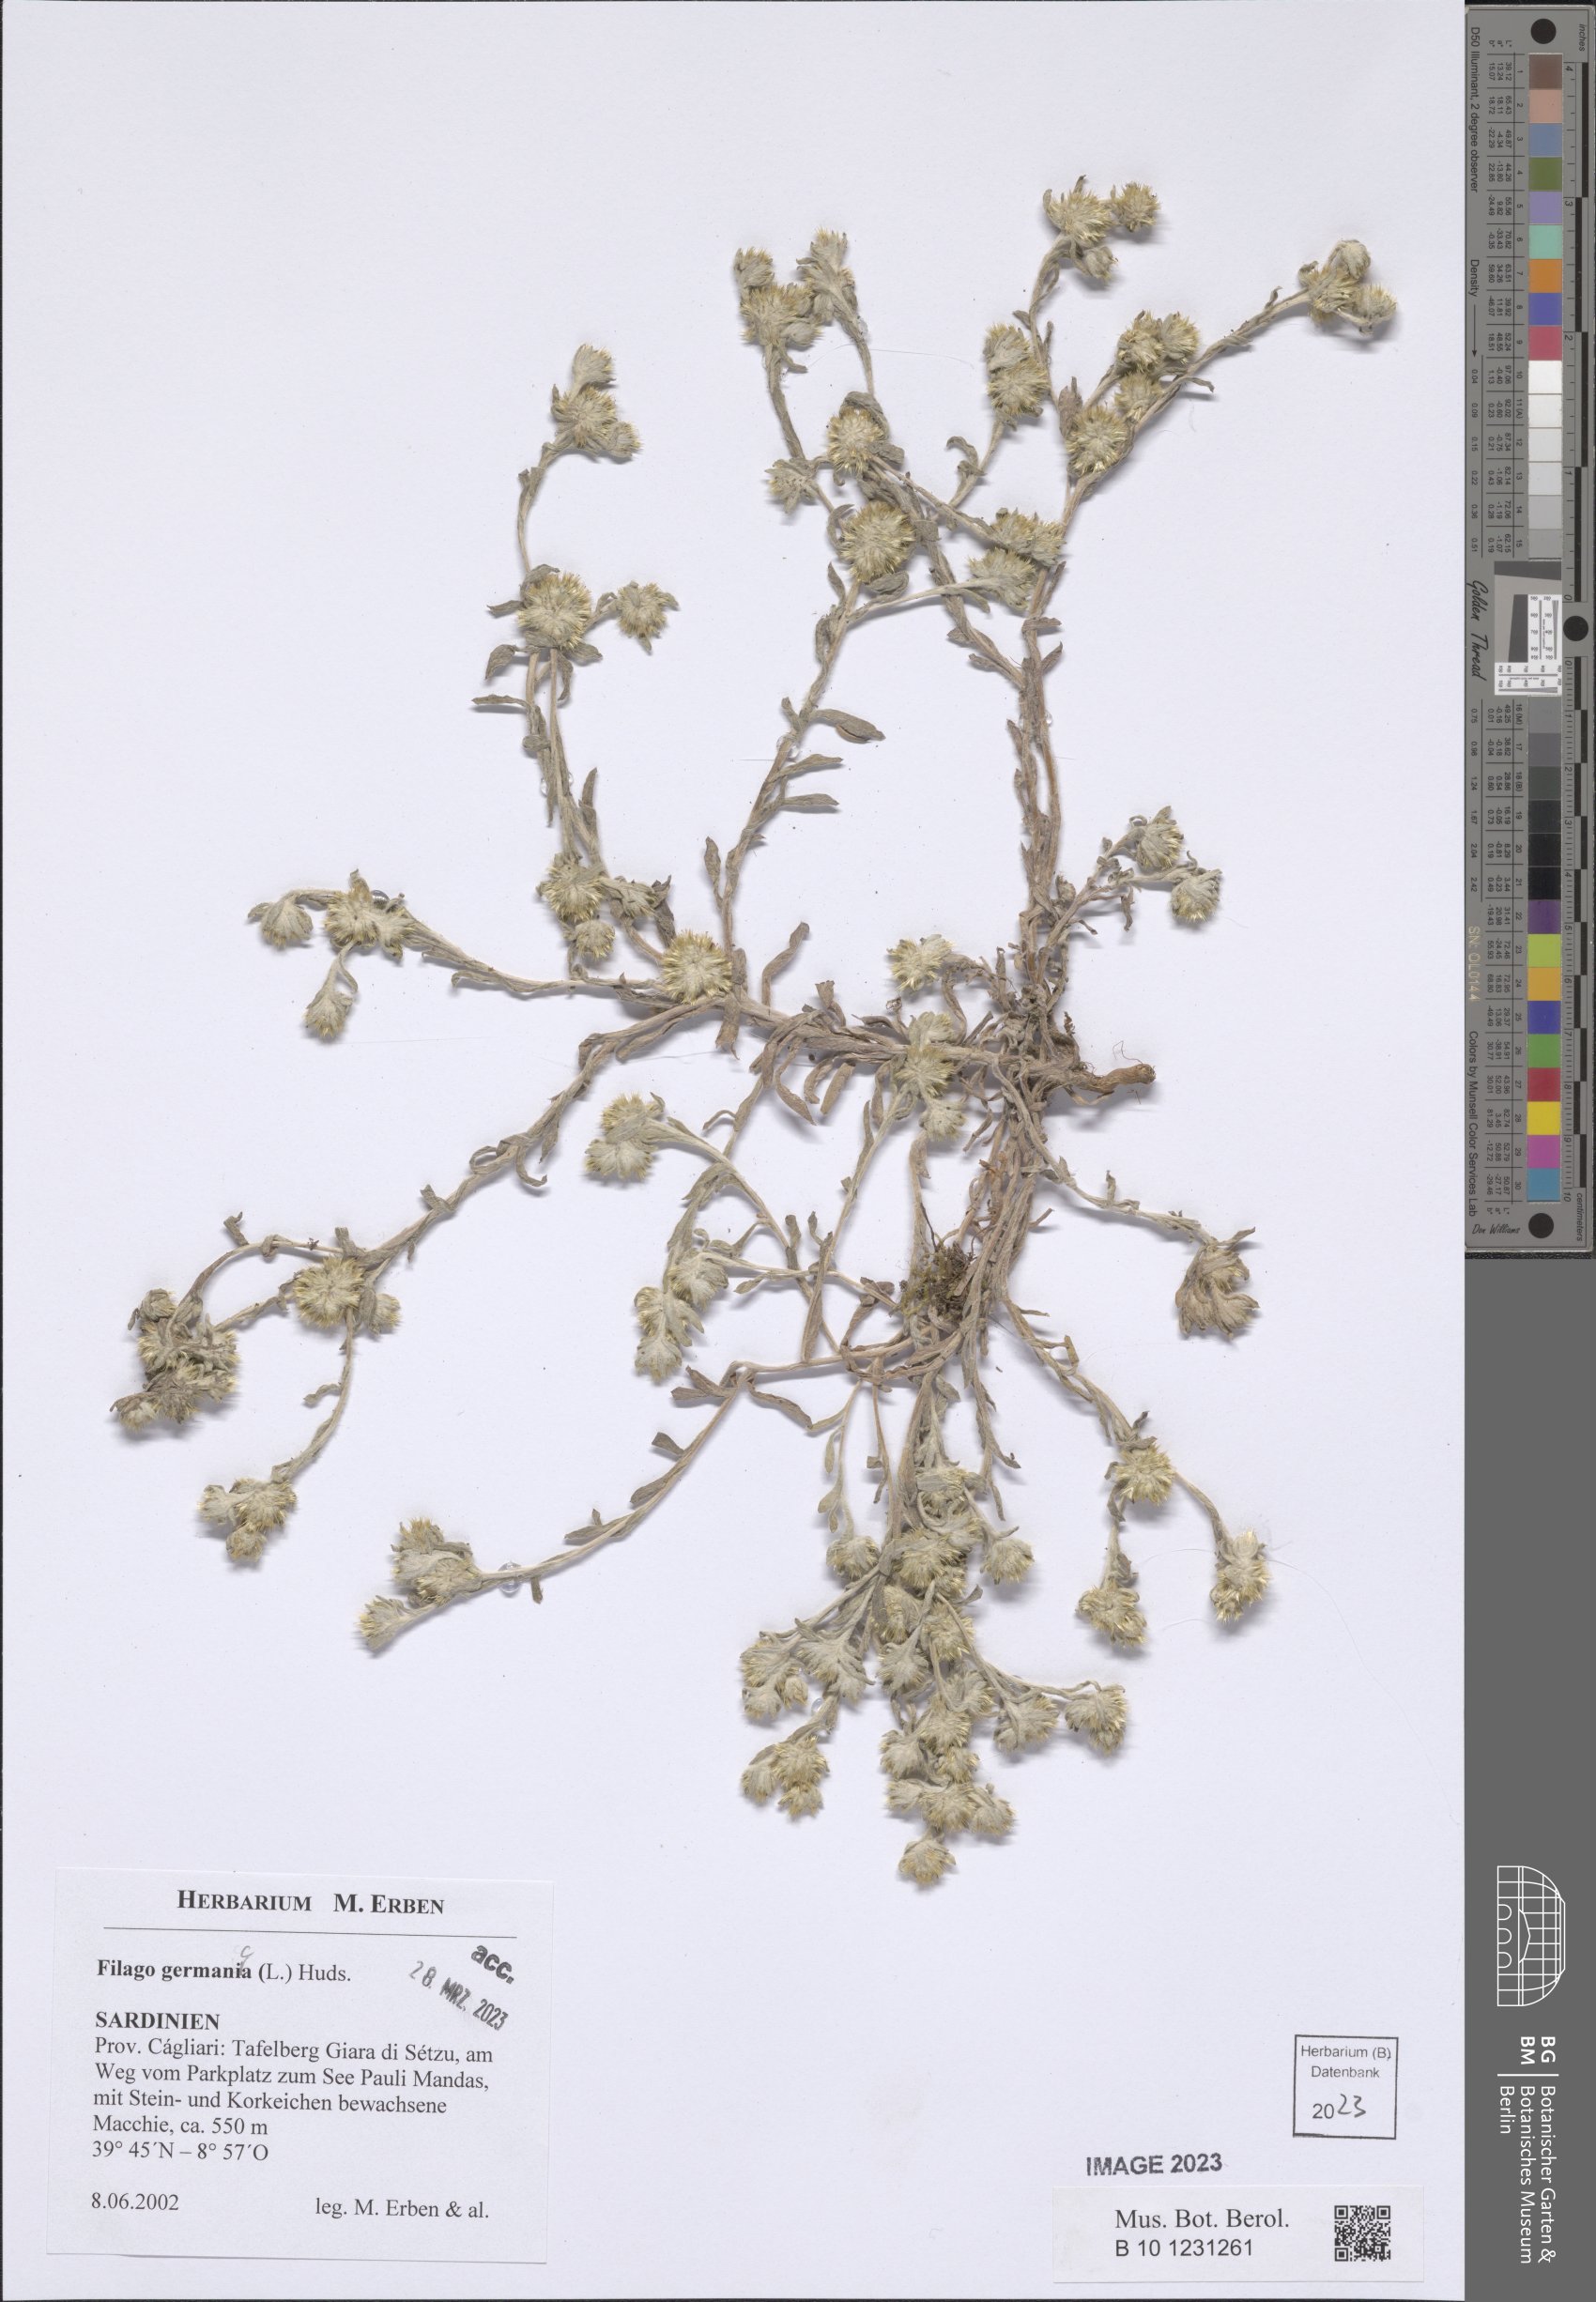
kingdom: Plantae
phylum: Tracheophyta
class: Magnoliopsida
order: Asterales
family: Asteraceae
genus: Filago
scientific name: Filago germanica
